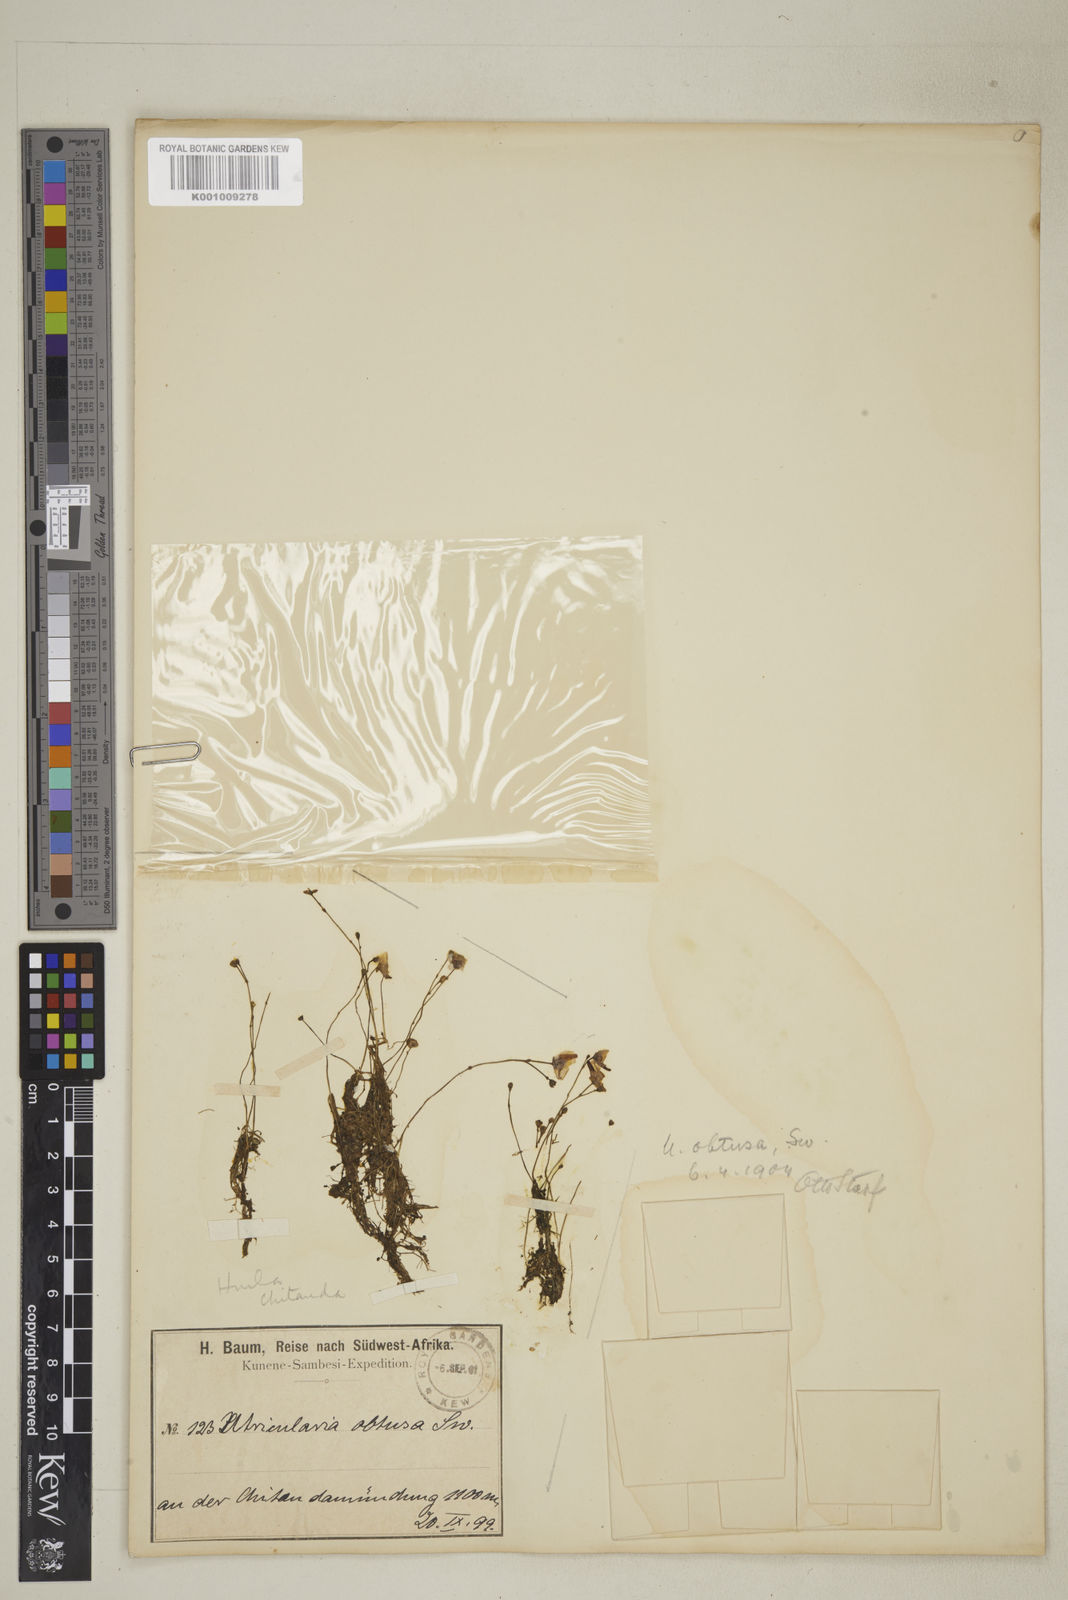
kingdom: Plantae
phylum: Tracheophyta
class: Magnoliopsida
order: Lamiales
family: Lentibulariaceae
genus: Utricularia
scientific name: Utricularia gibba
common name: Humped bladderwort
